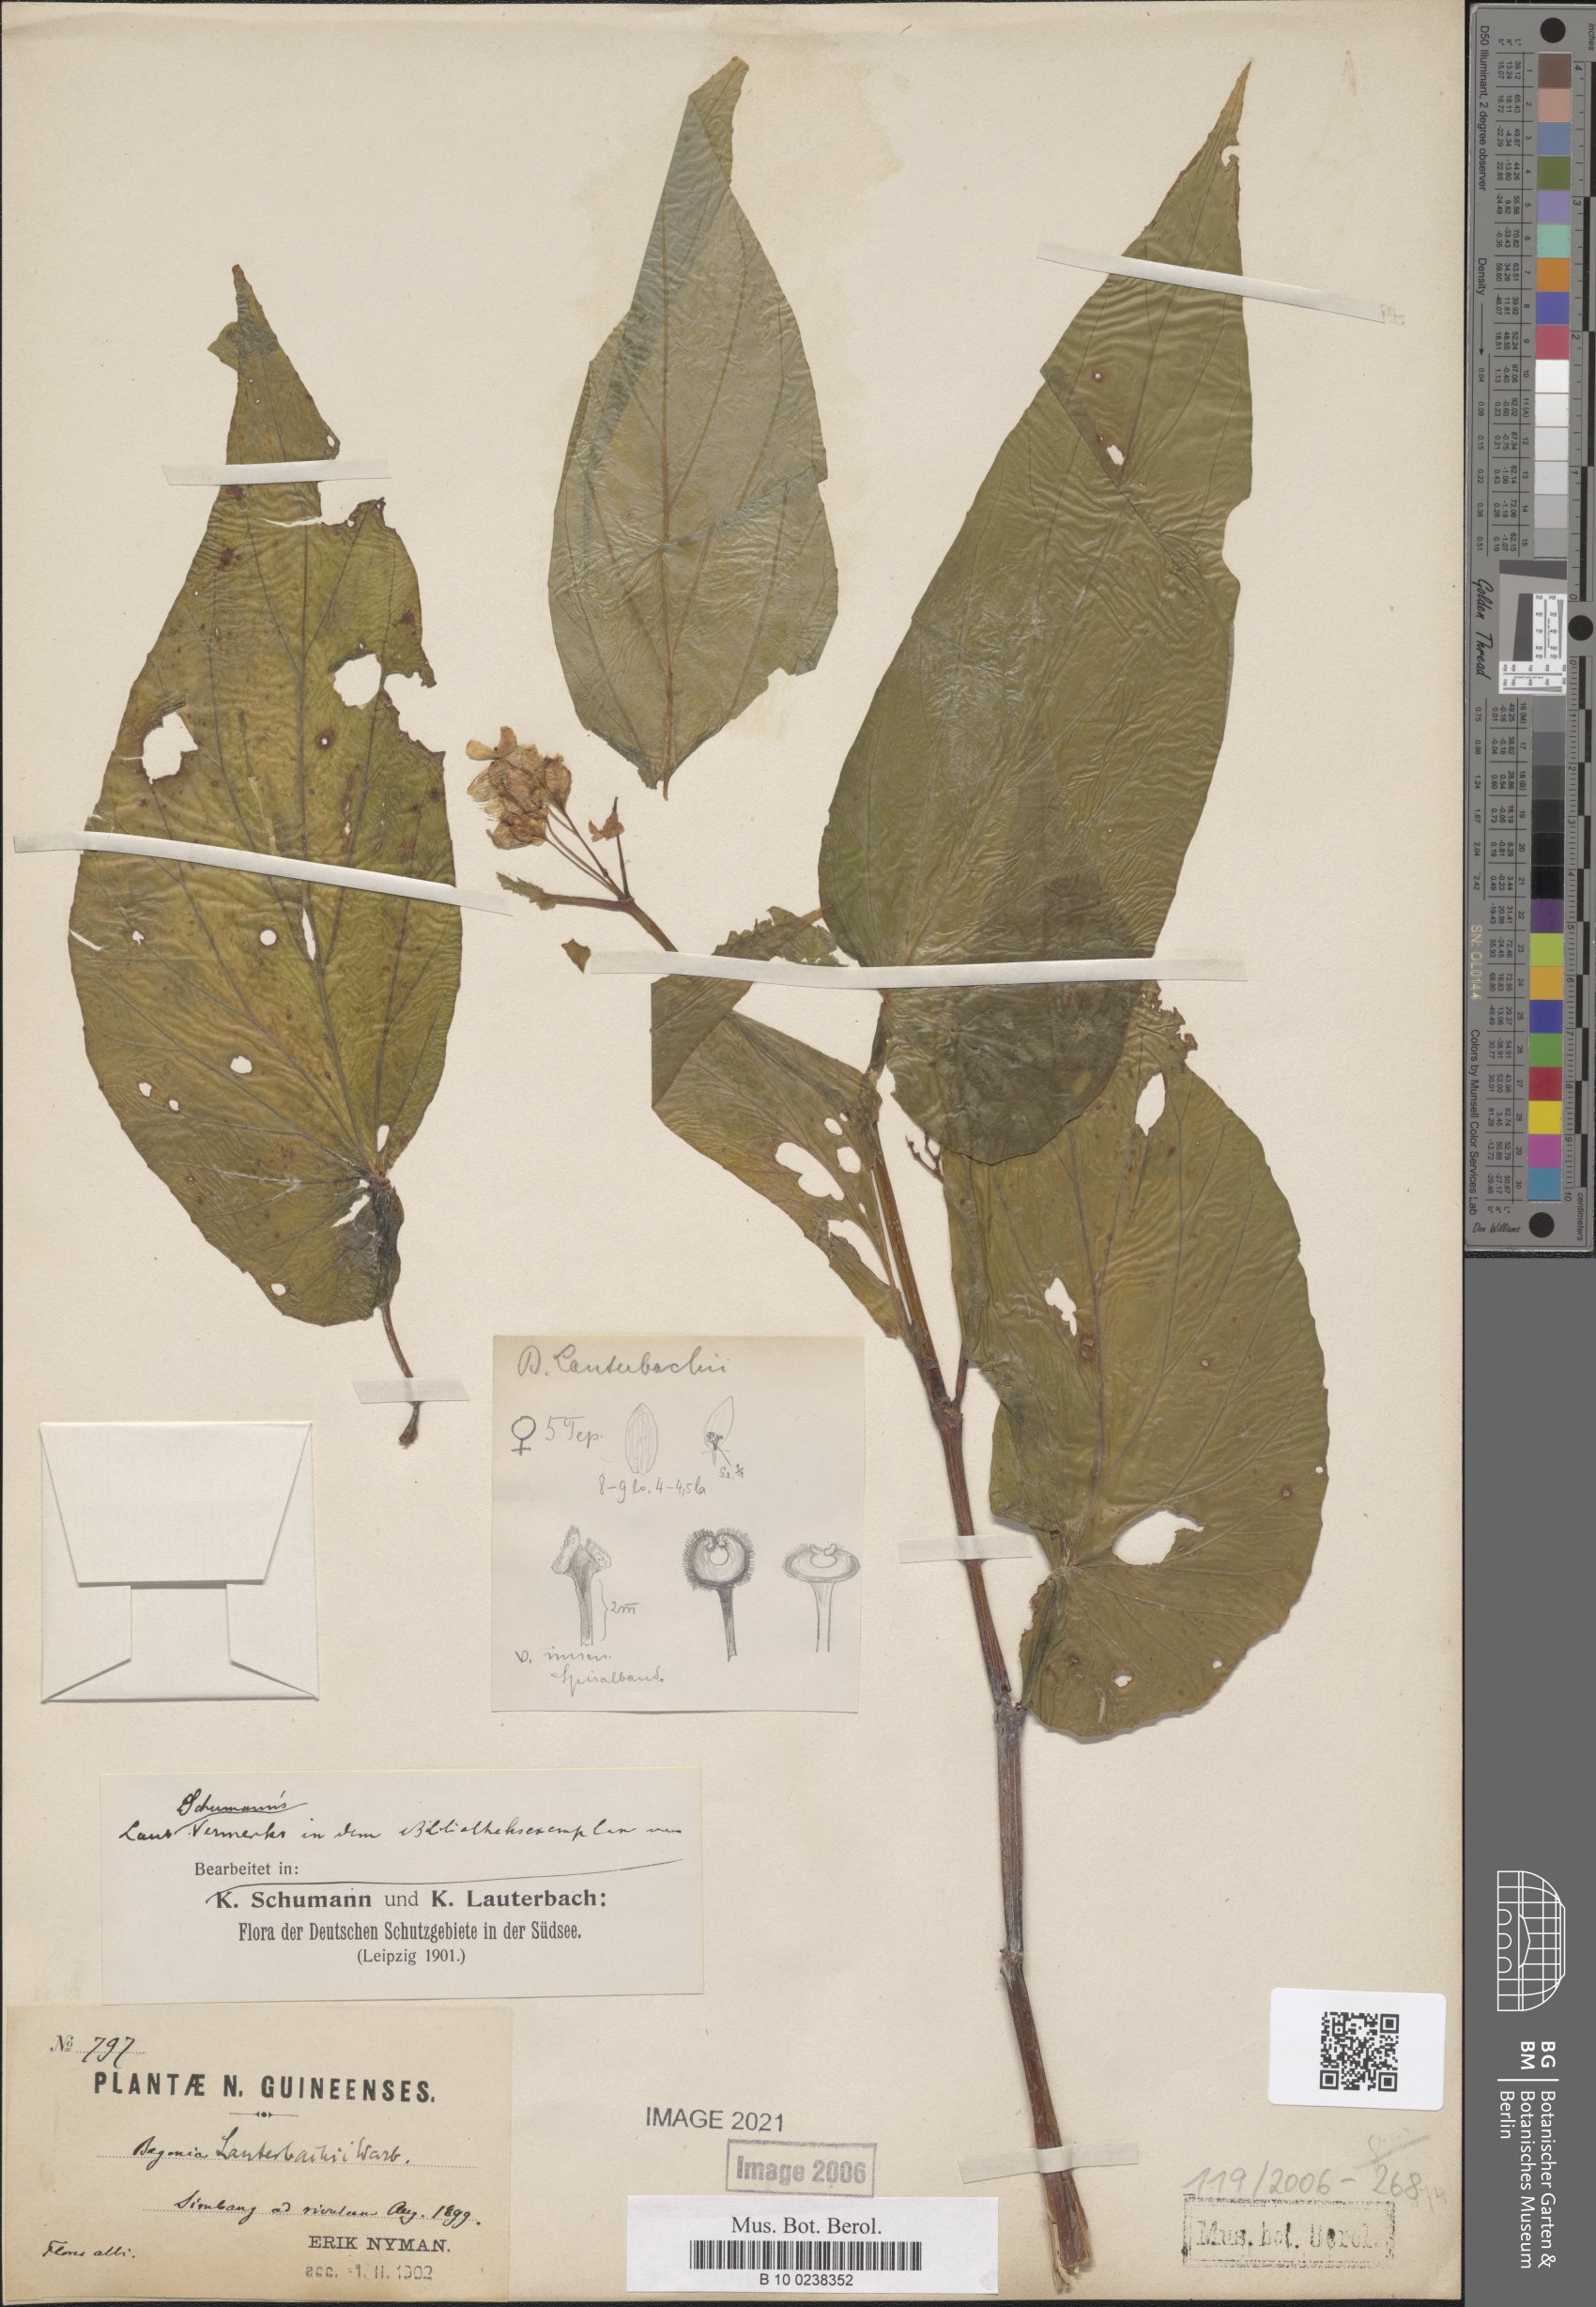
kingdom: Plantae
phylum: Tracheophyta
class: Magnoliopsida
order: Cucurbitales
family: Begoniaceae
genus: Begonia
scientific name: Begonia lauterbachii
